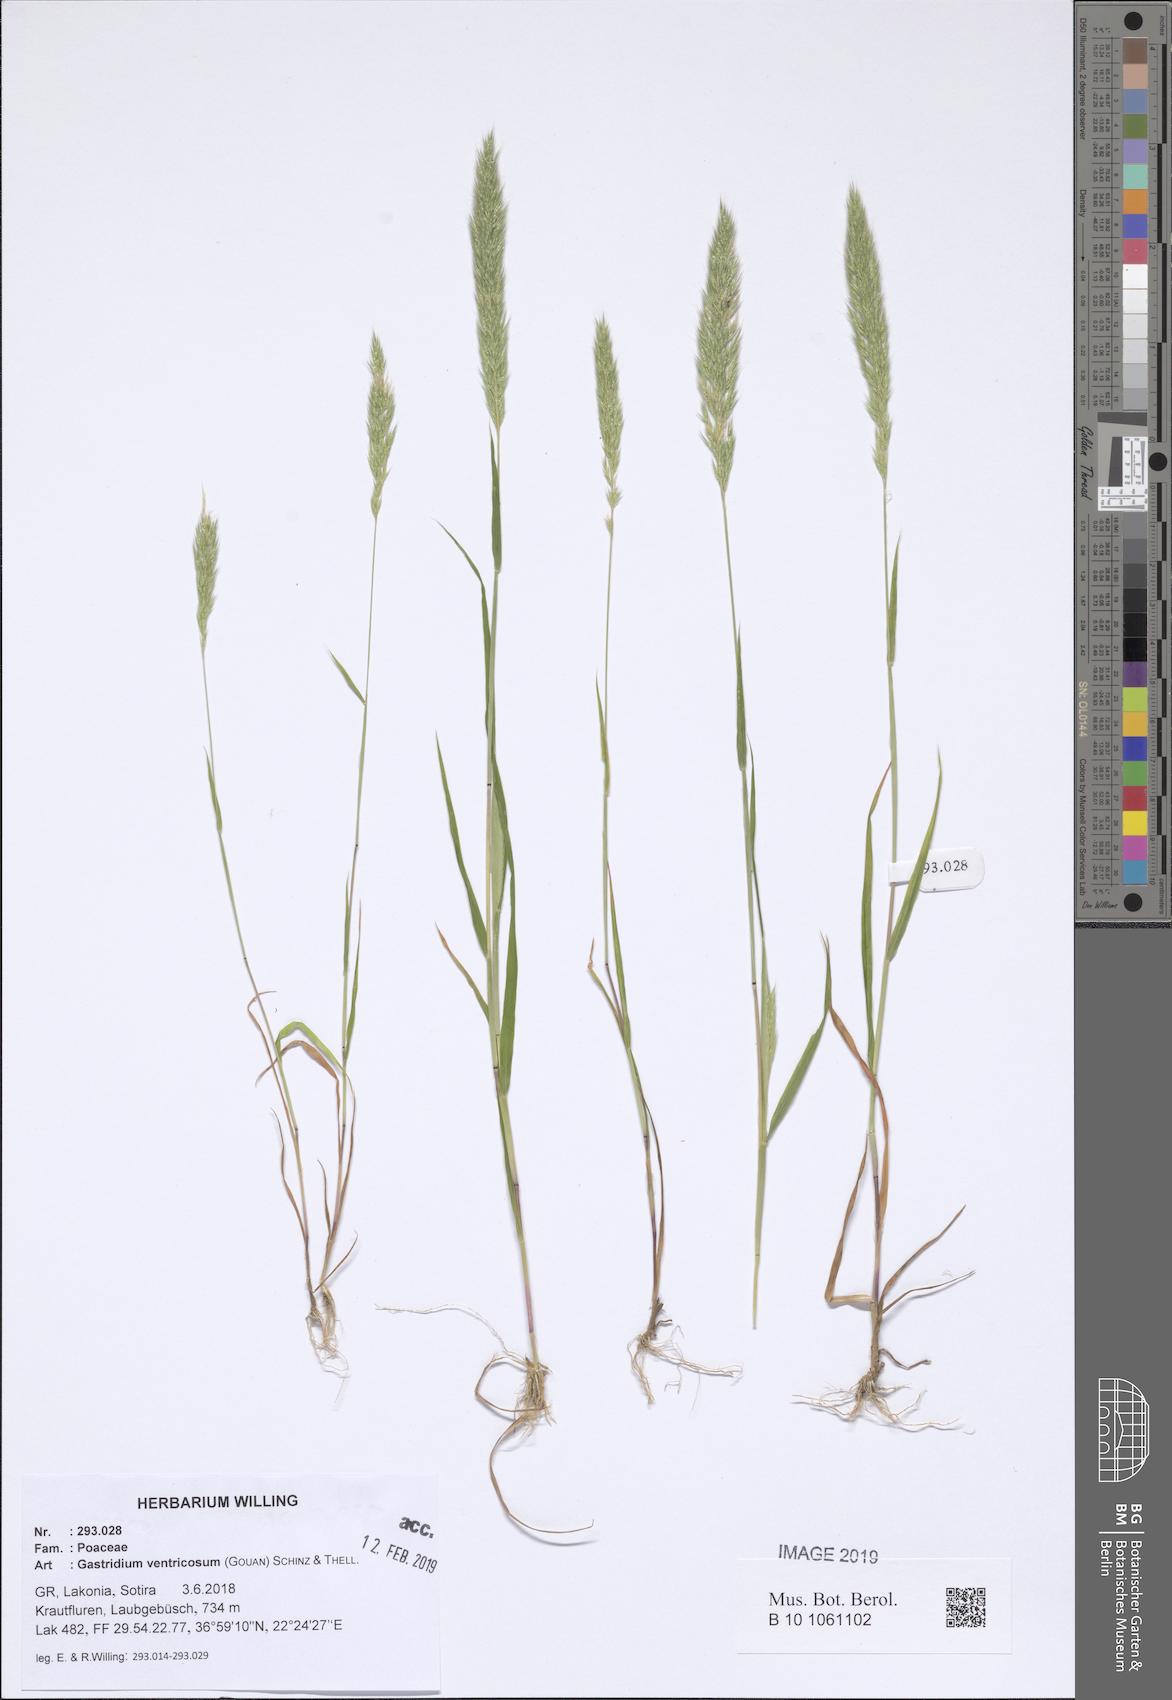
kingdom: Plantae
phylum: Tracheophyta
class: Liliopsida
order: Poales
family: Poaceae
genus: Gastridium
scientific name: Gastridium ventricosum
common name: Nit-grass
